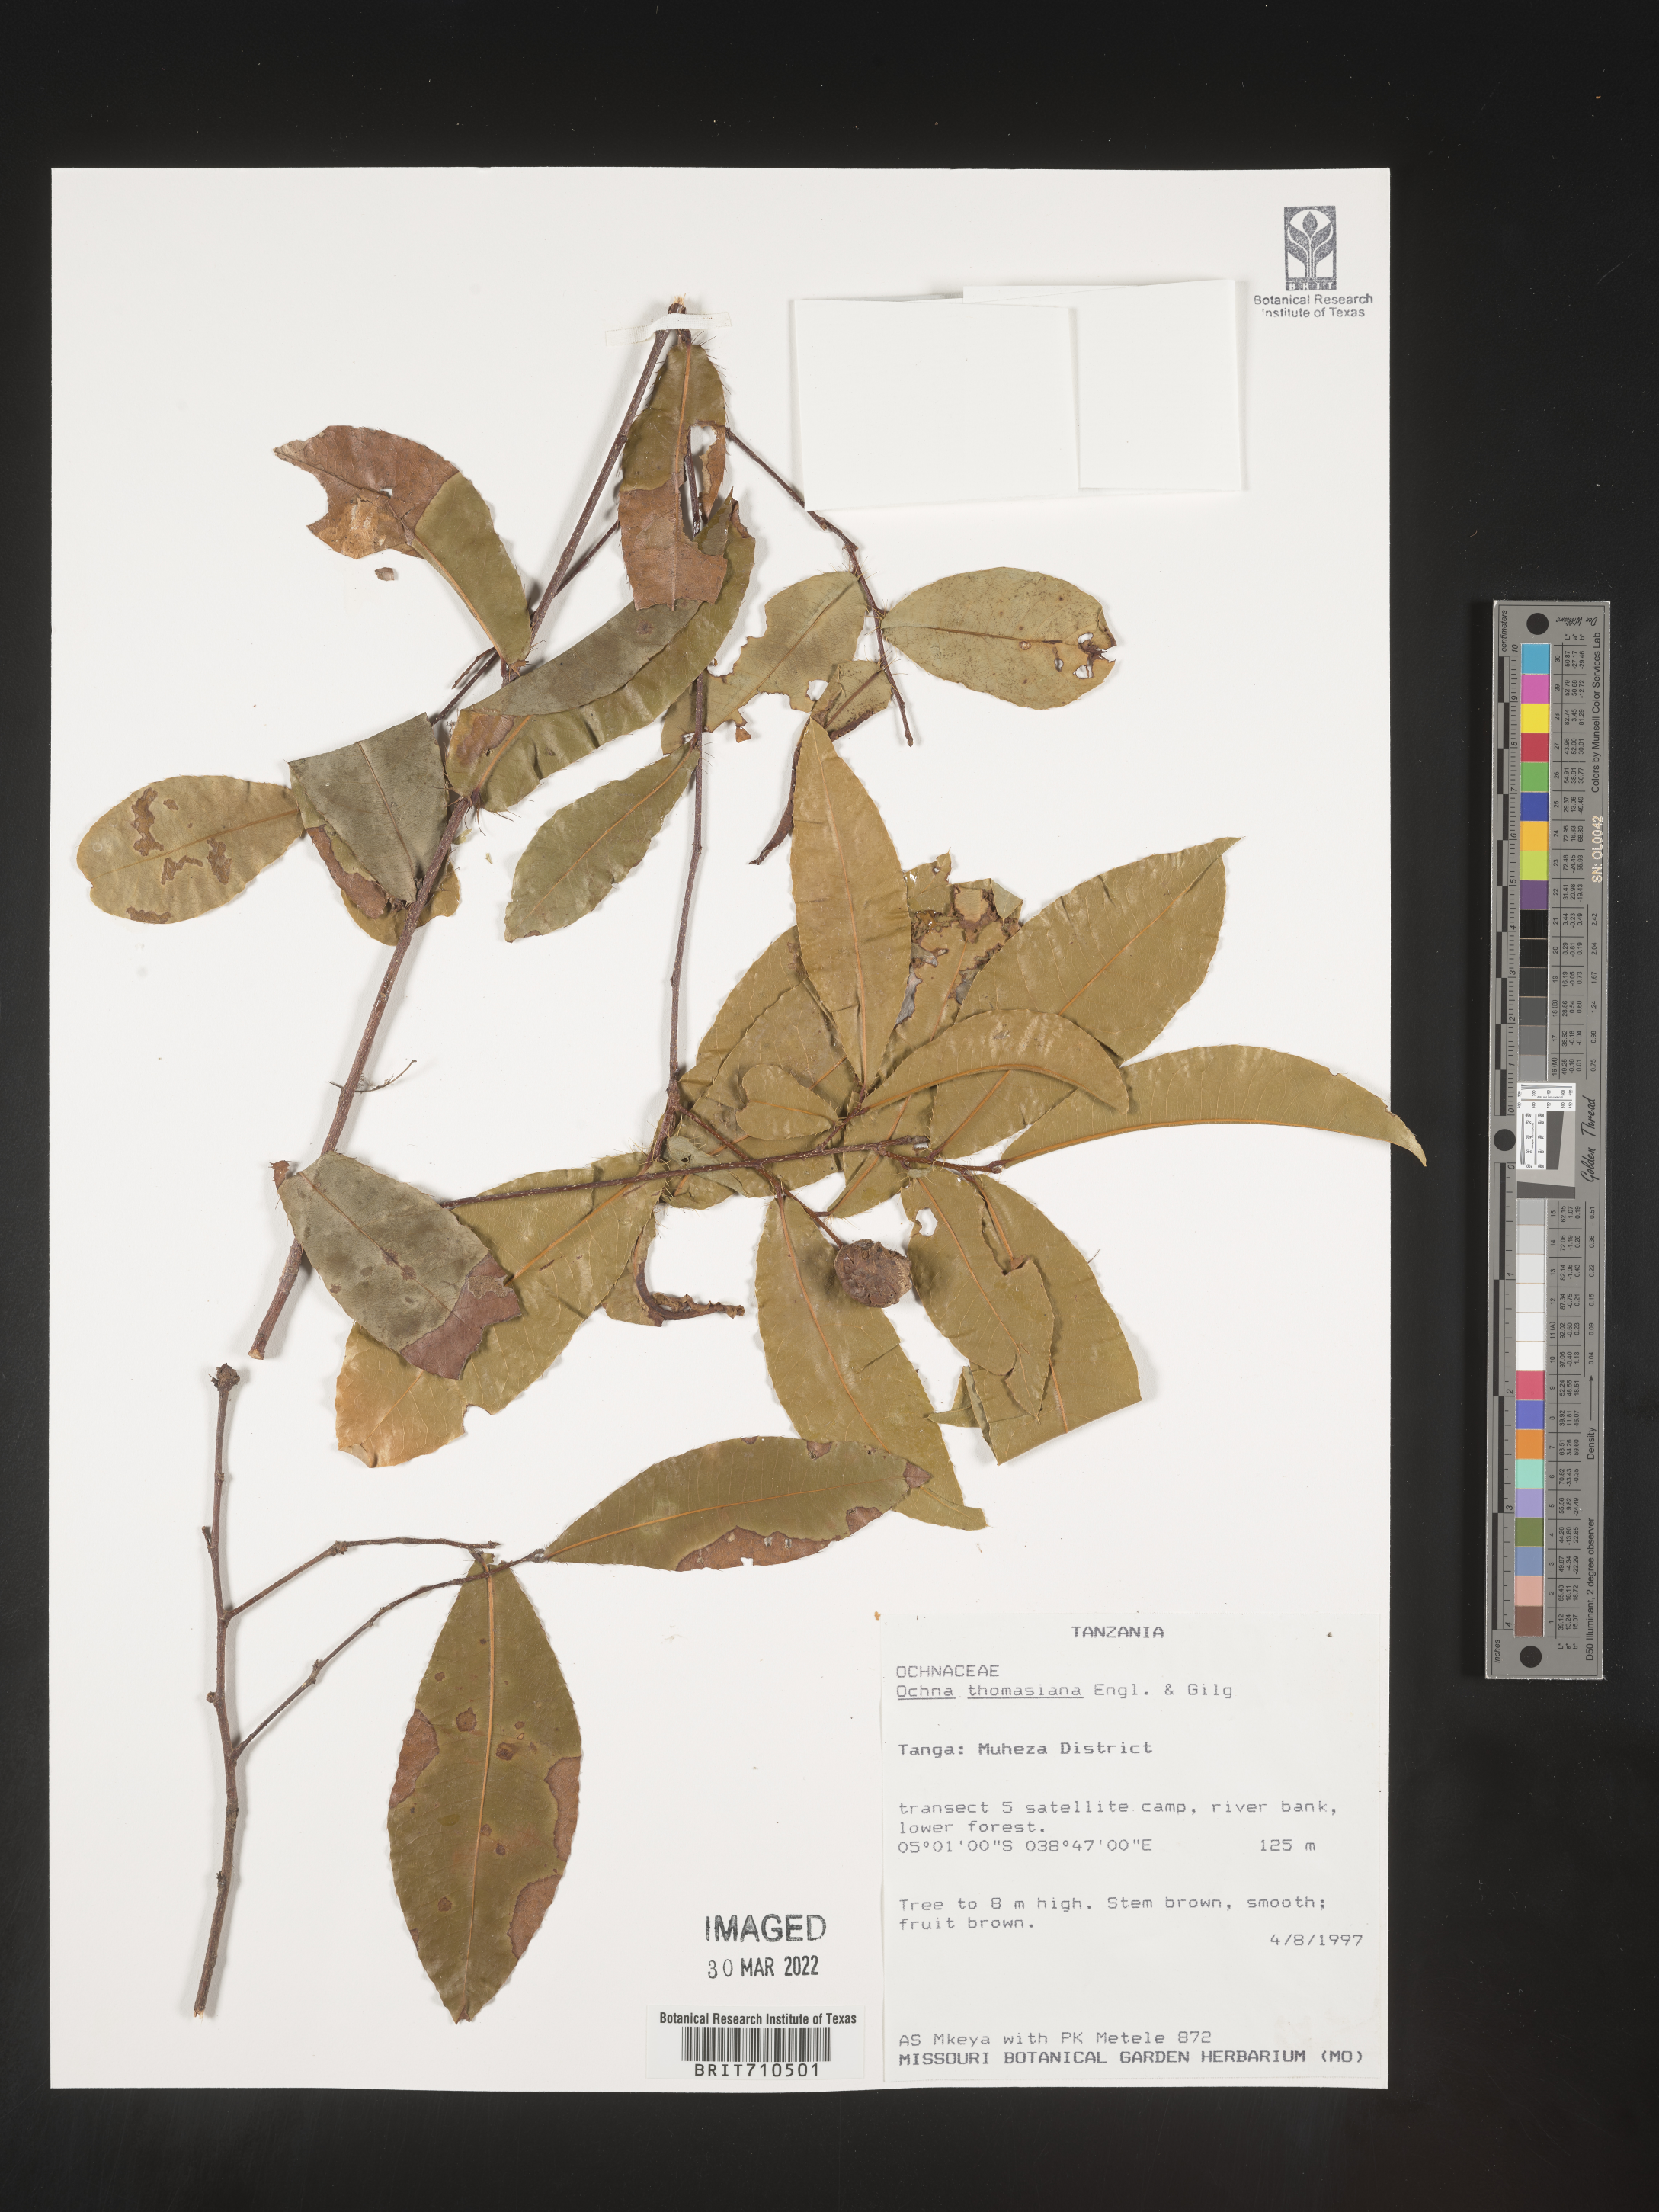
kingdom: Plantae
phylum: Tracheophyta
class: Magnoliopsida
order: Malpighiales
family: Ochnaceae
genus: Ochna
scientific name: Ochna
